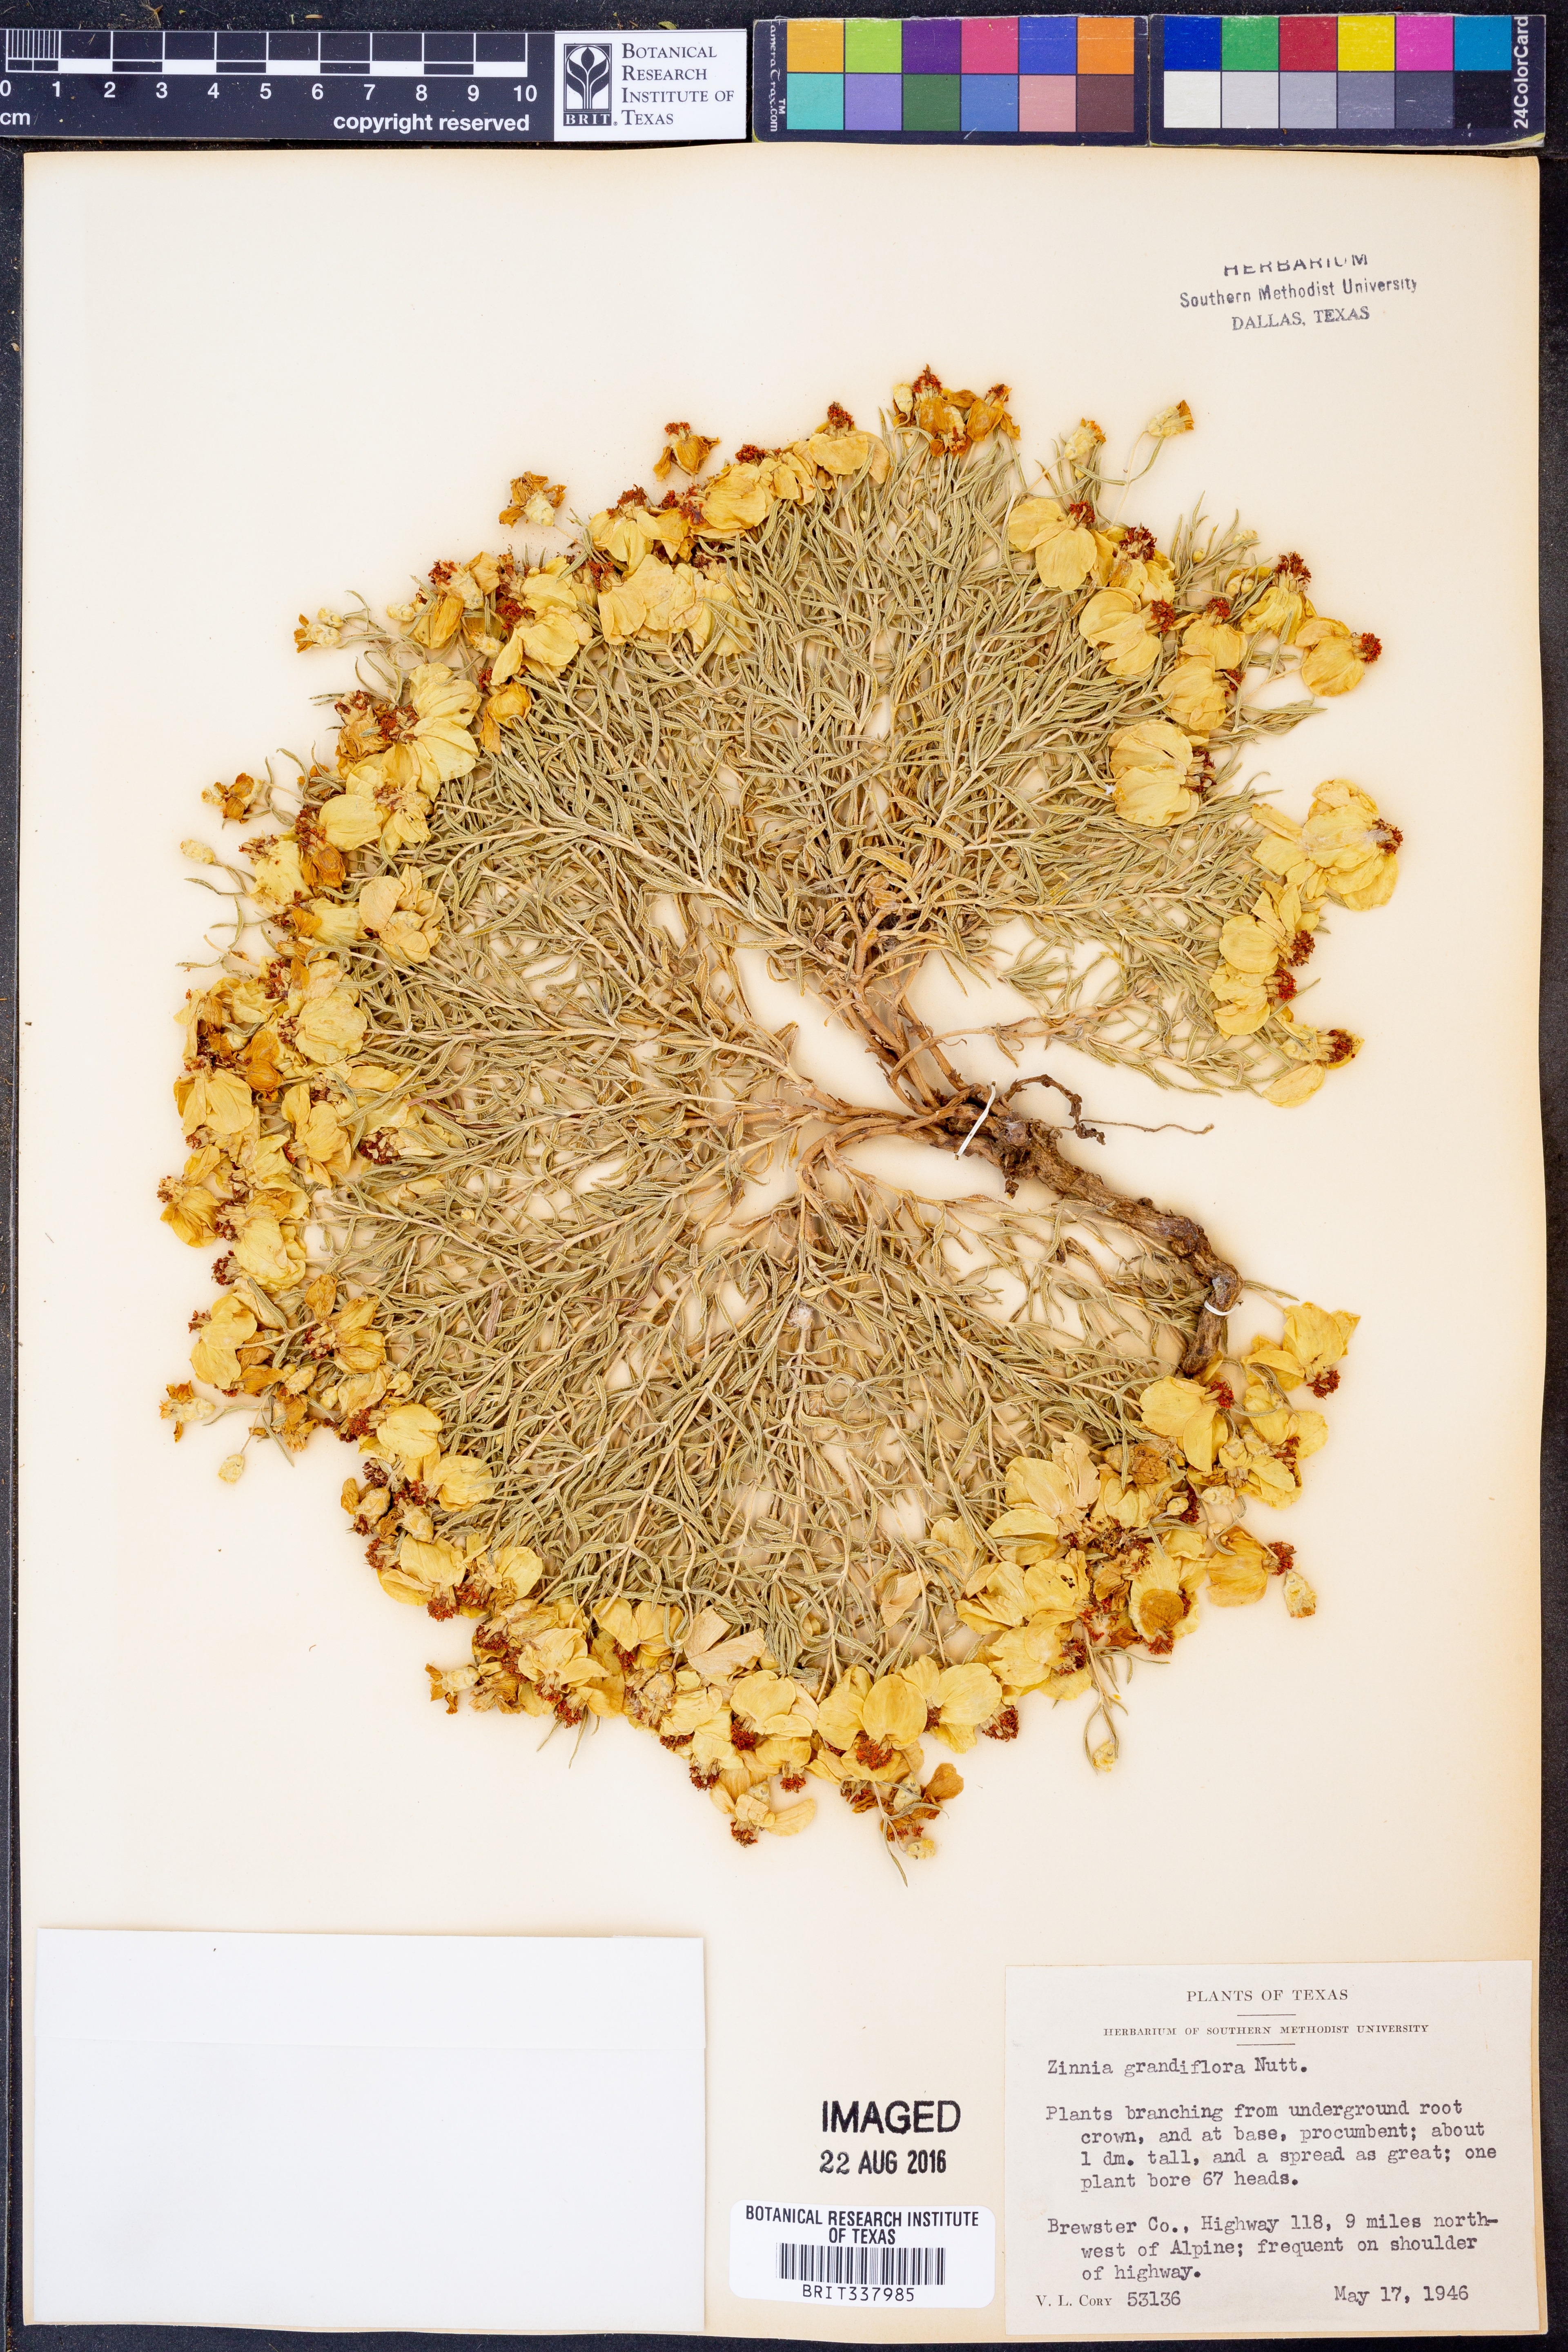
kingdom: Plantae
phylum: Tracheophyta
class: Magnoliopsida
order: Asterales
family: Asteraceae
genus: Zinnia
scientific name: Zinnia grandiflora
